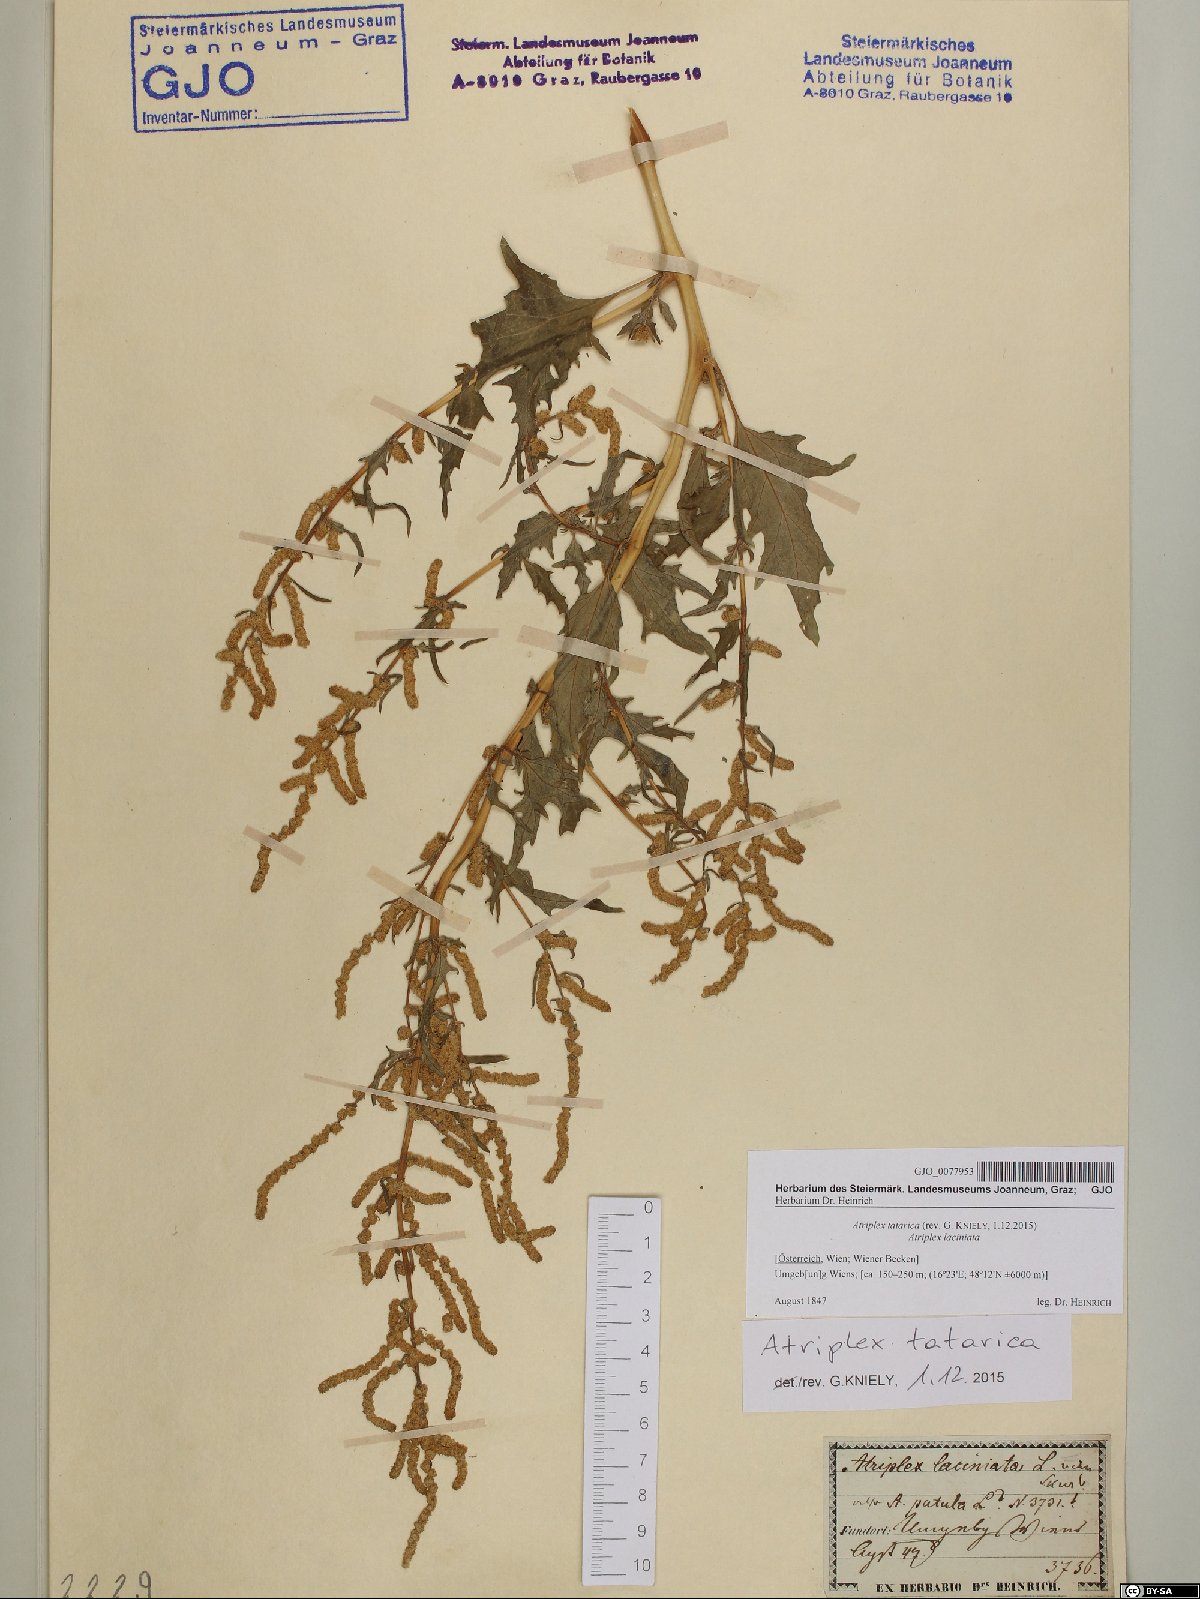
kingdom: Plantae
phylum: Tracheophyta
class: Magnoliopsida
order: Caryophyllales
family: Amaranthaceae
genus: Atriplex
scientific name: Atriplex tatarica
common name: Tatarian orache
